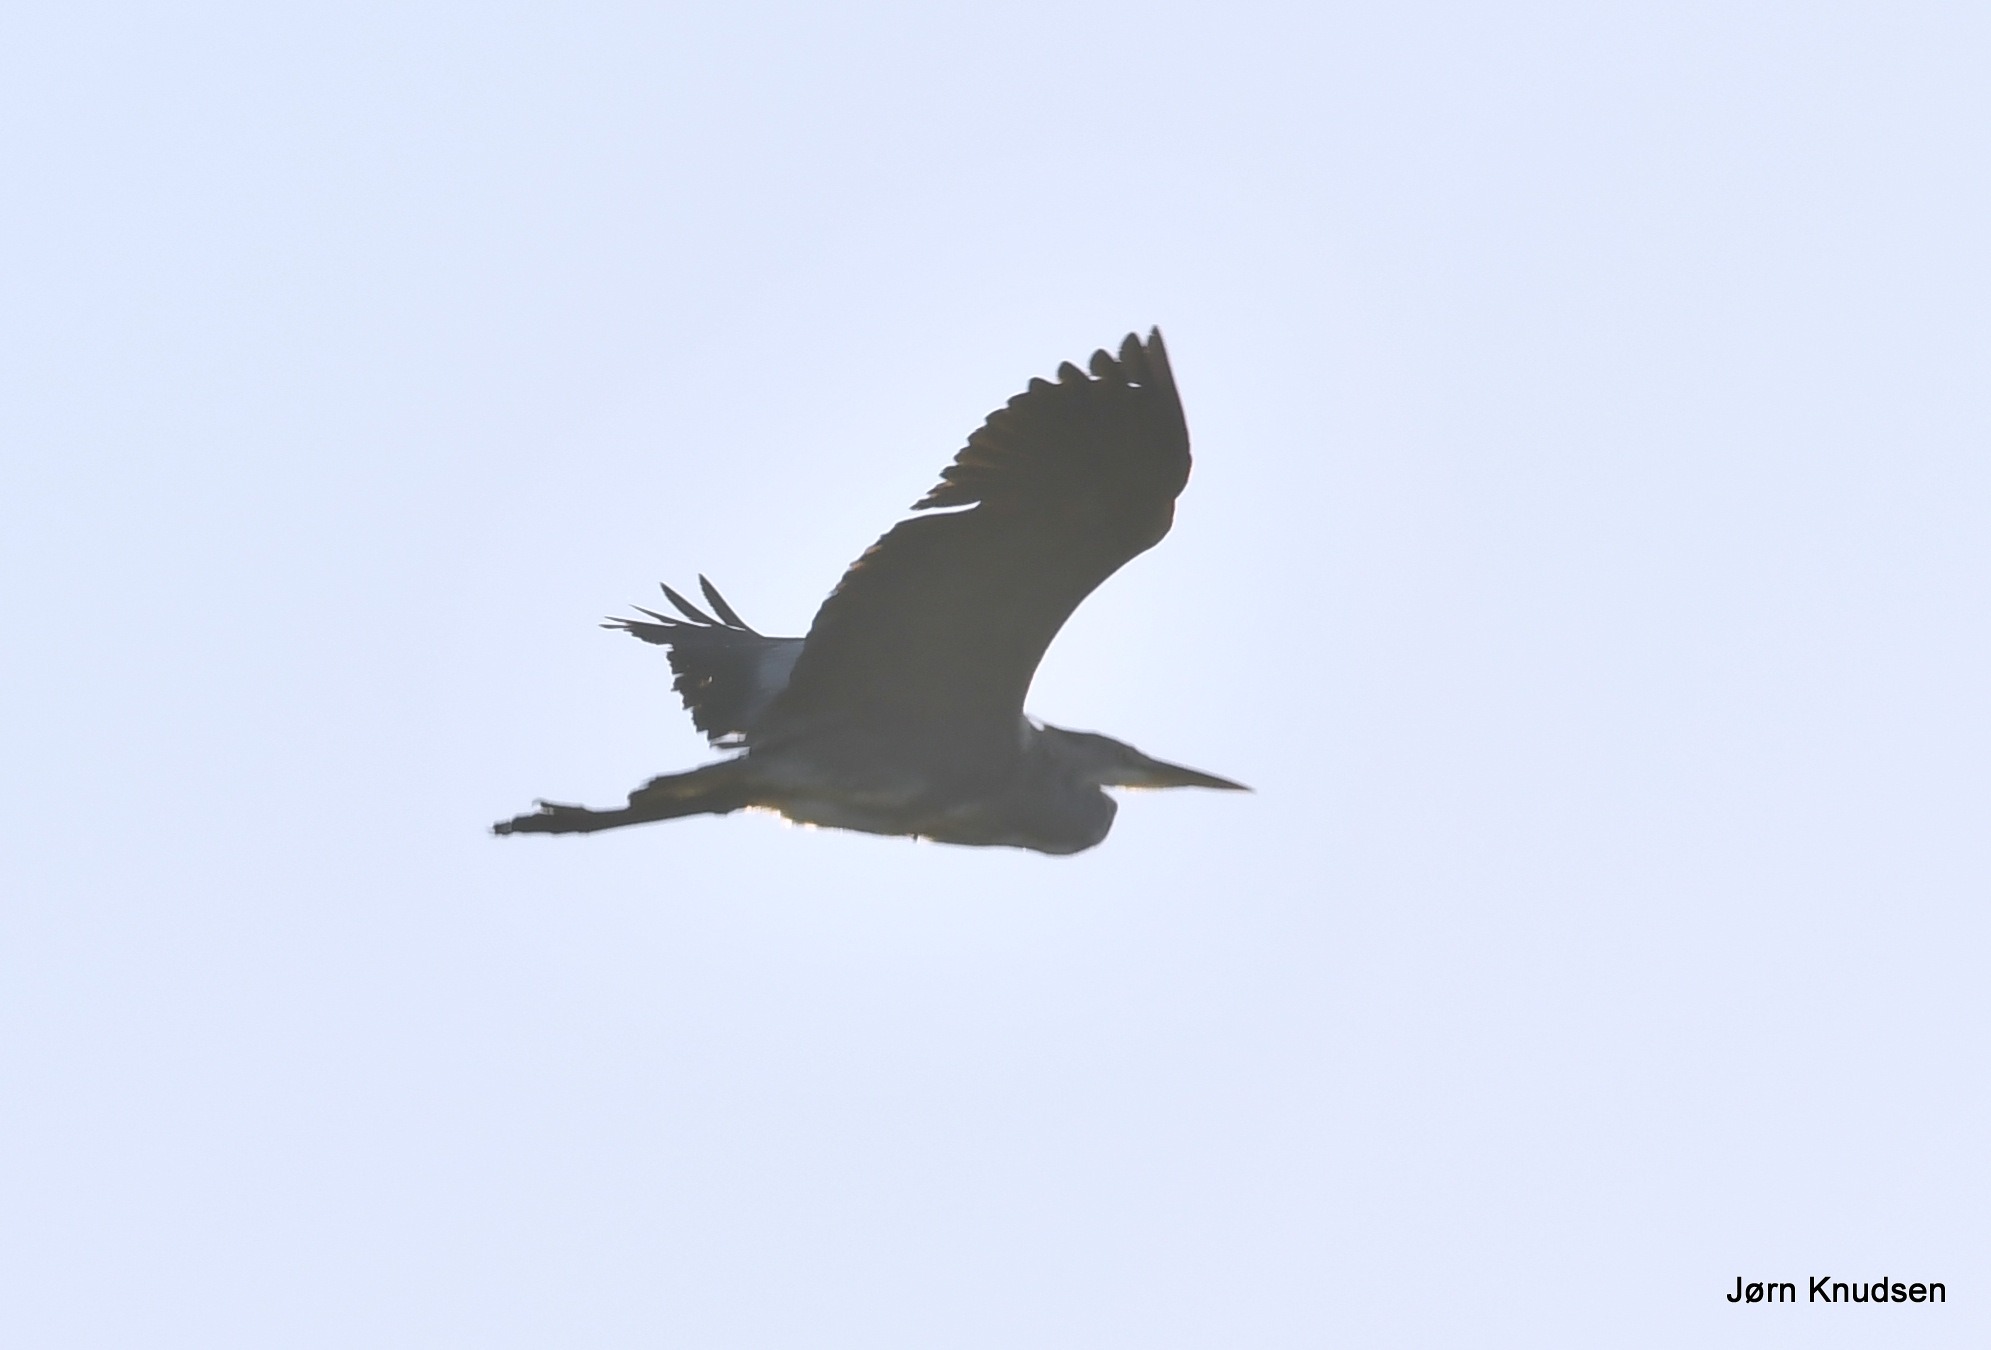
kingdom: Animalia
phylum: Chordata
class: Aves
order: Pelecaniformes
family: Ardeidae
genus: Ardea
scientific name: Ardea cinerea
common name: Fiskehejre
